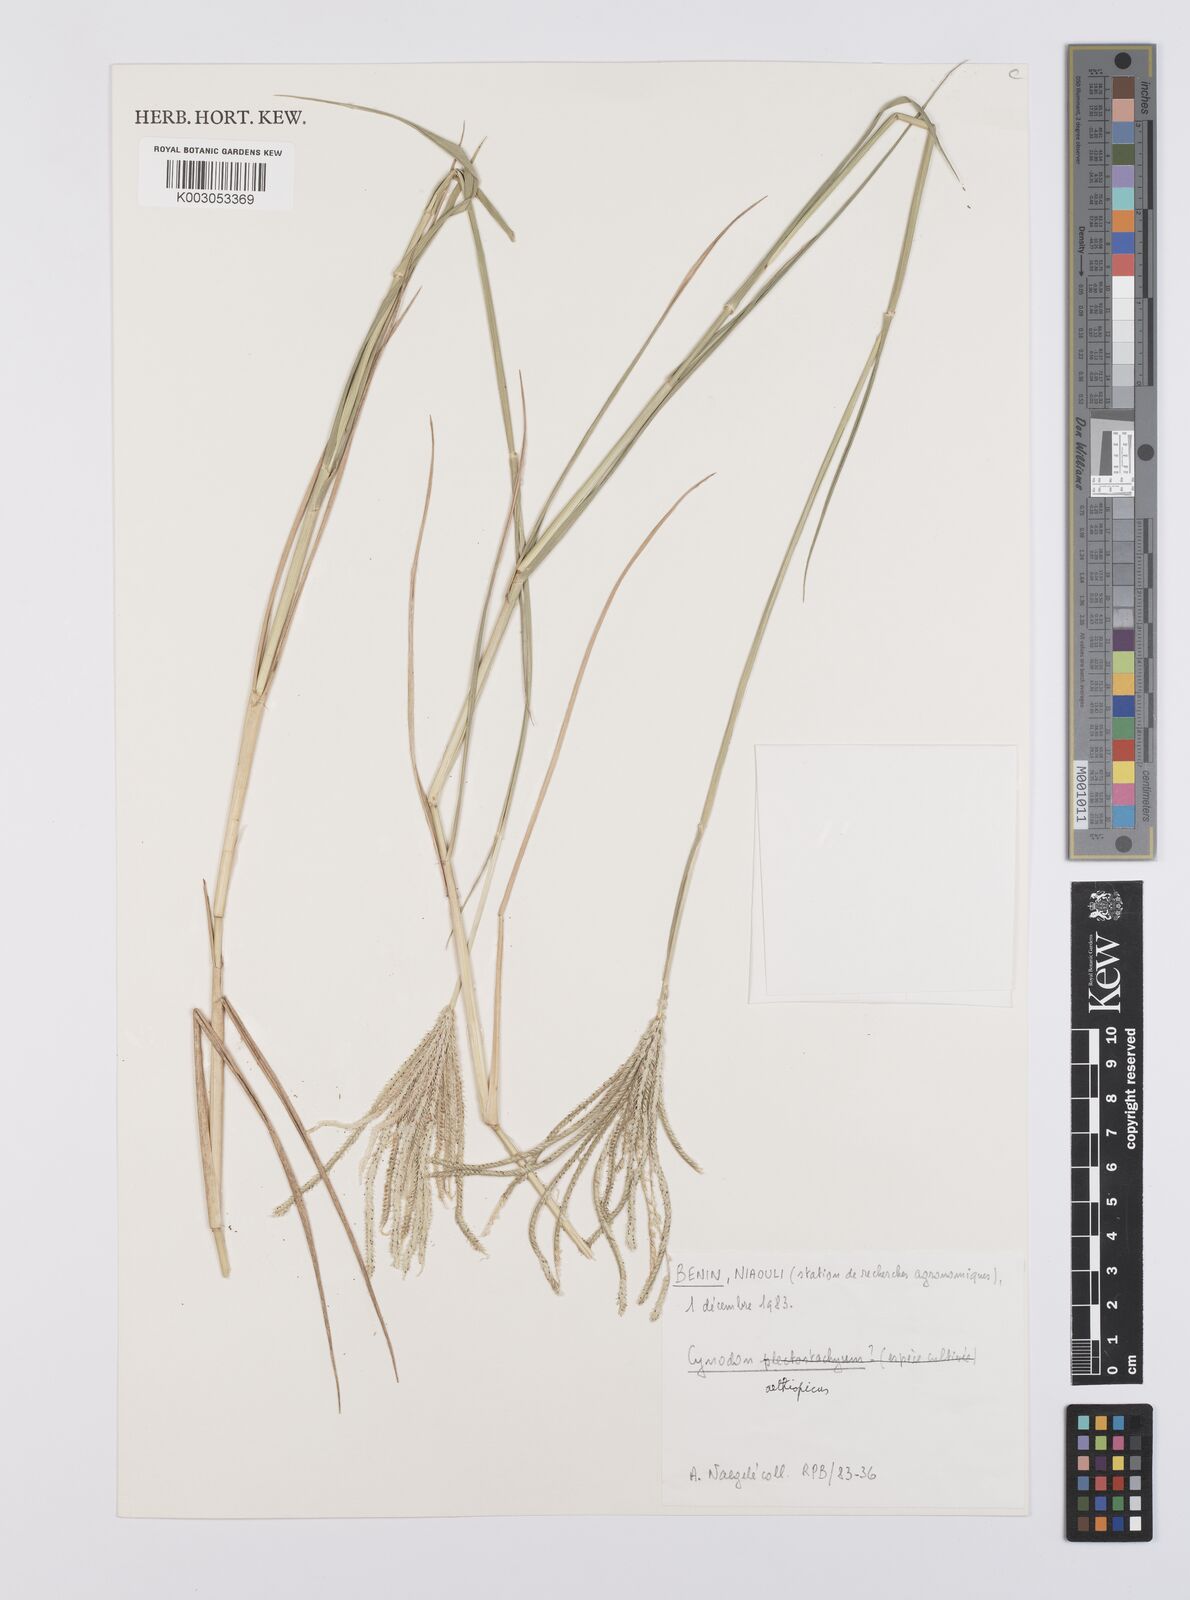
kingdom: Plantae
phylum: Tracheophyta
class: Liliopsida
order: Poales
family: Poaceae
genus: Cynodon
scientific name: Cynodon aethiopicus
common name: Ethiopian dogstooth grass
